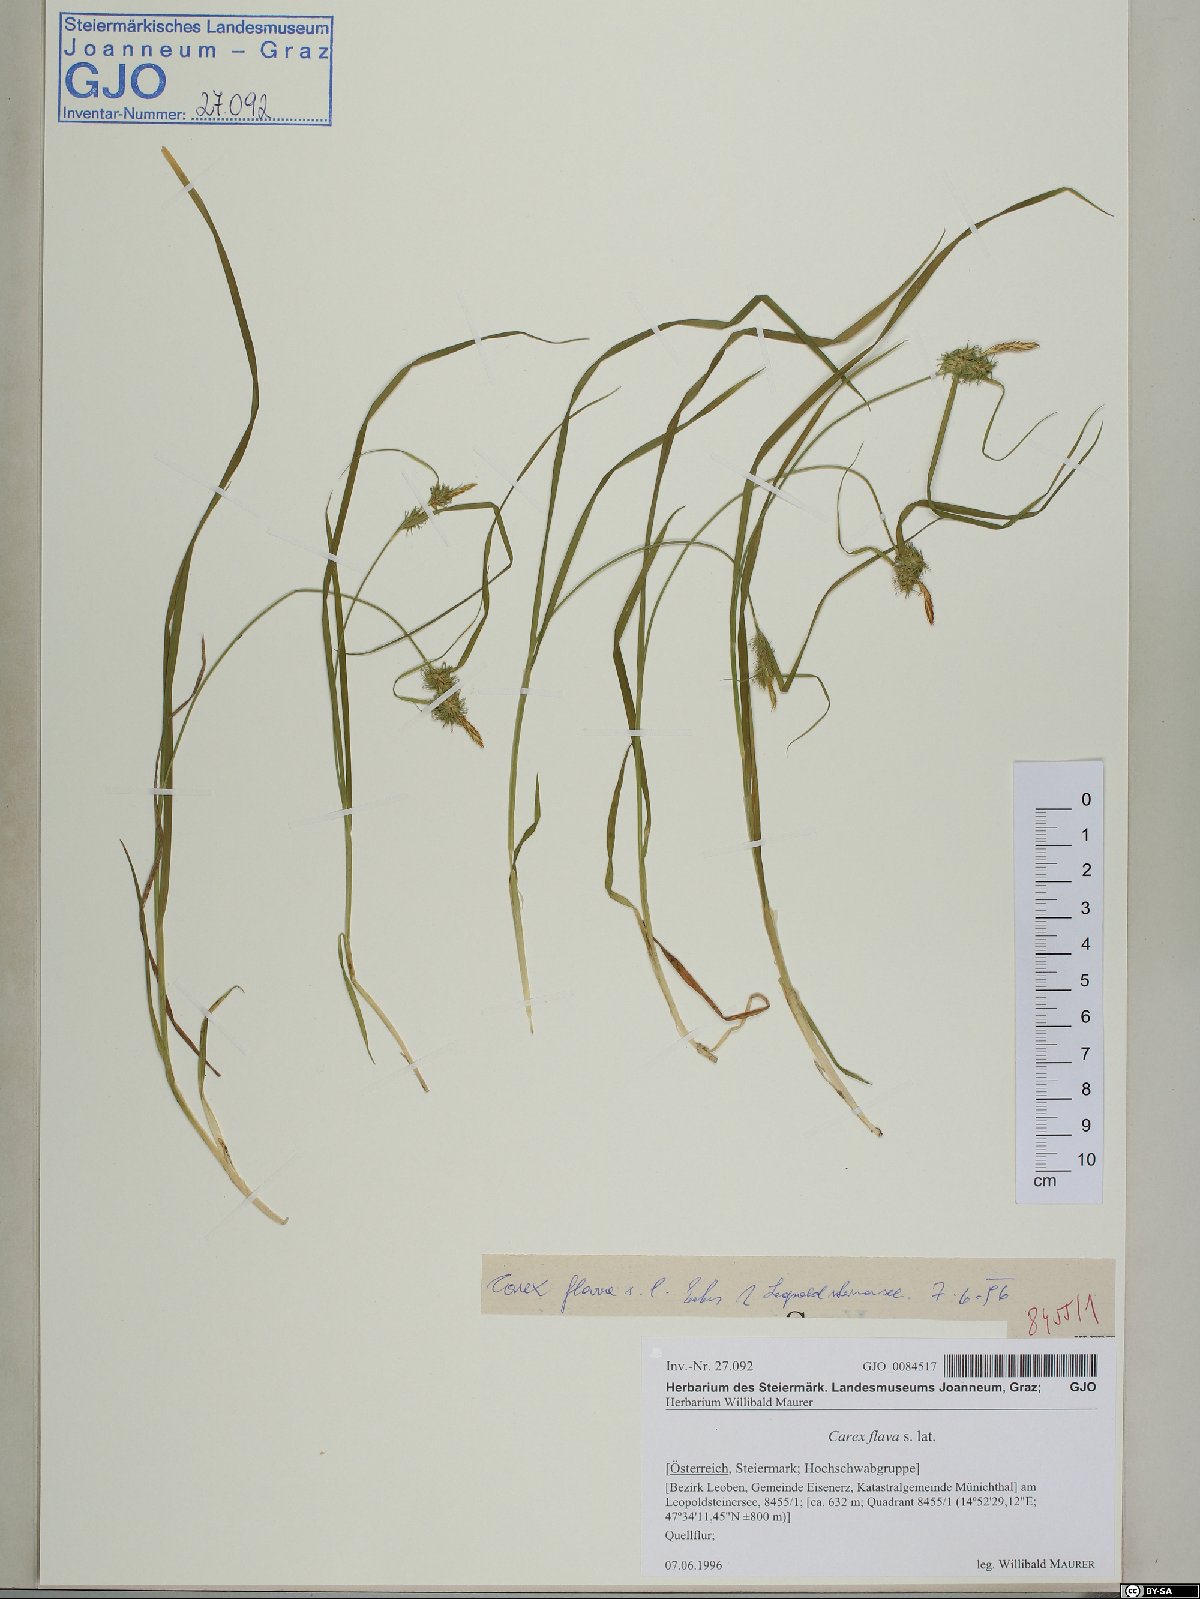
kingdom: Plantae
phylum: Tracheophyta
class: Liliopsida
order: Poales
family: Cyperaceae
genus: Carex
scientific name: Carex flava
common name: Large yellow-sedge
